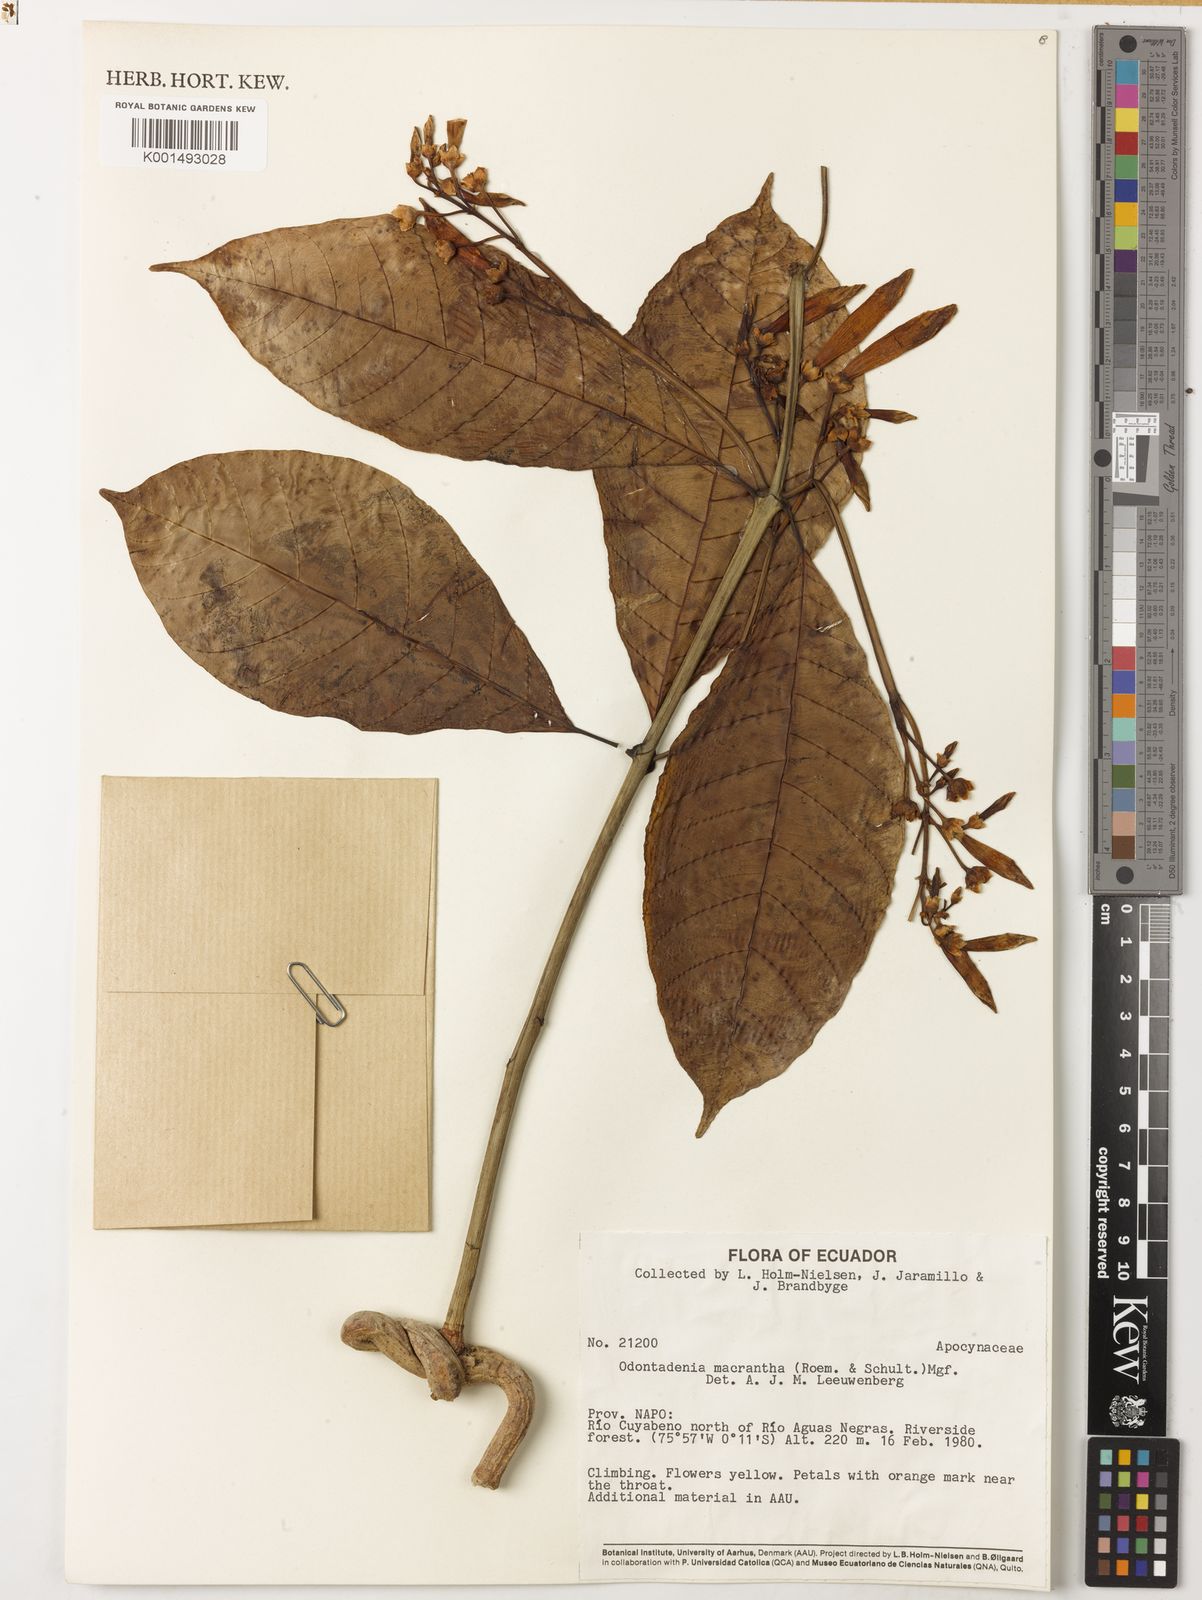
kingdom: Plantae
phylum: Tracheophyta
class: Magnoliopsida
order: Gentianales
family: Apocynaceae
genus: Odontadenia
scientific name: Odontadenia semidigyna
